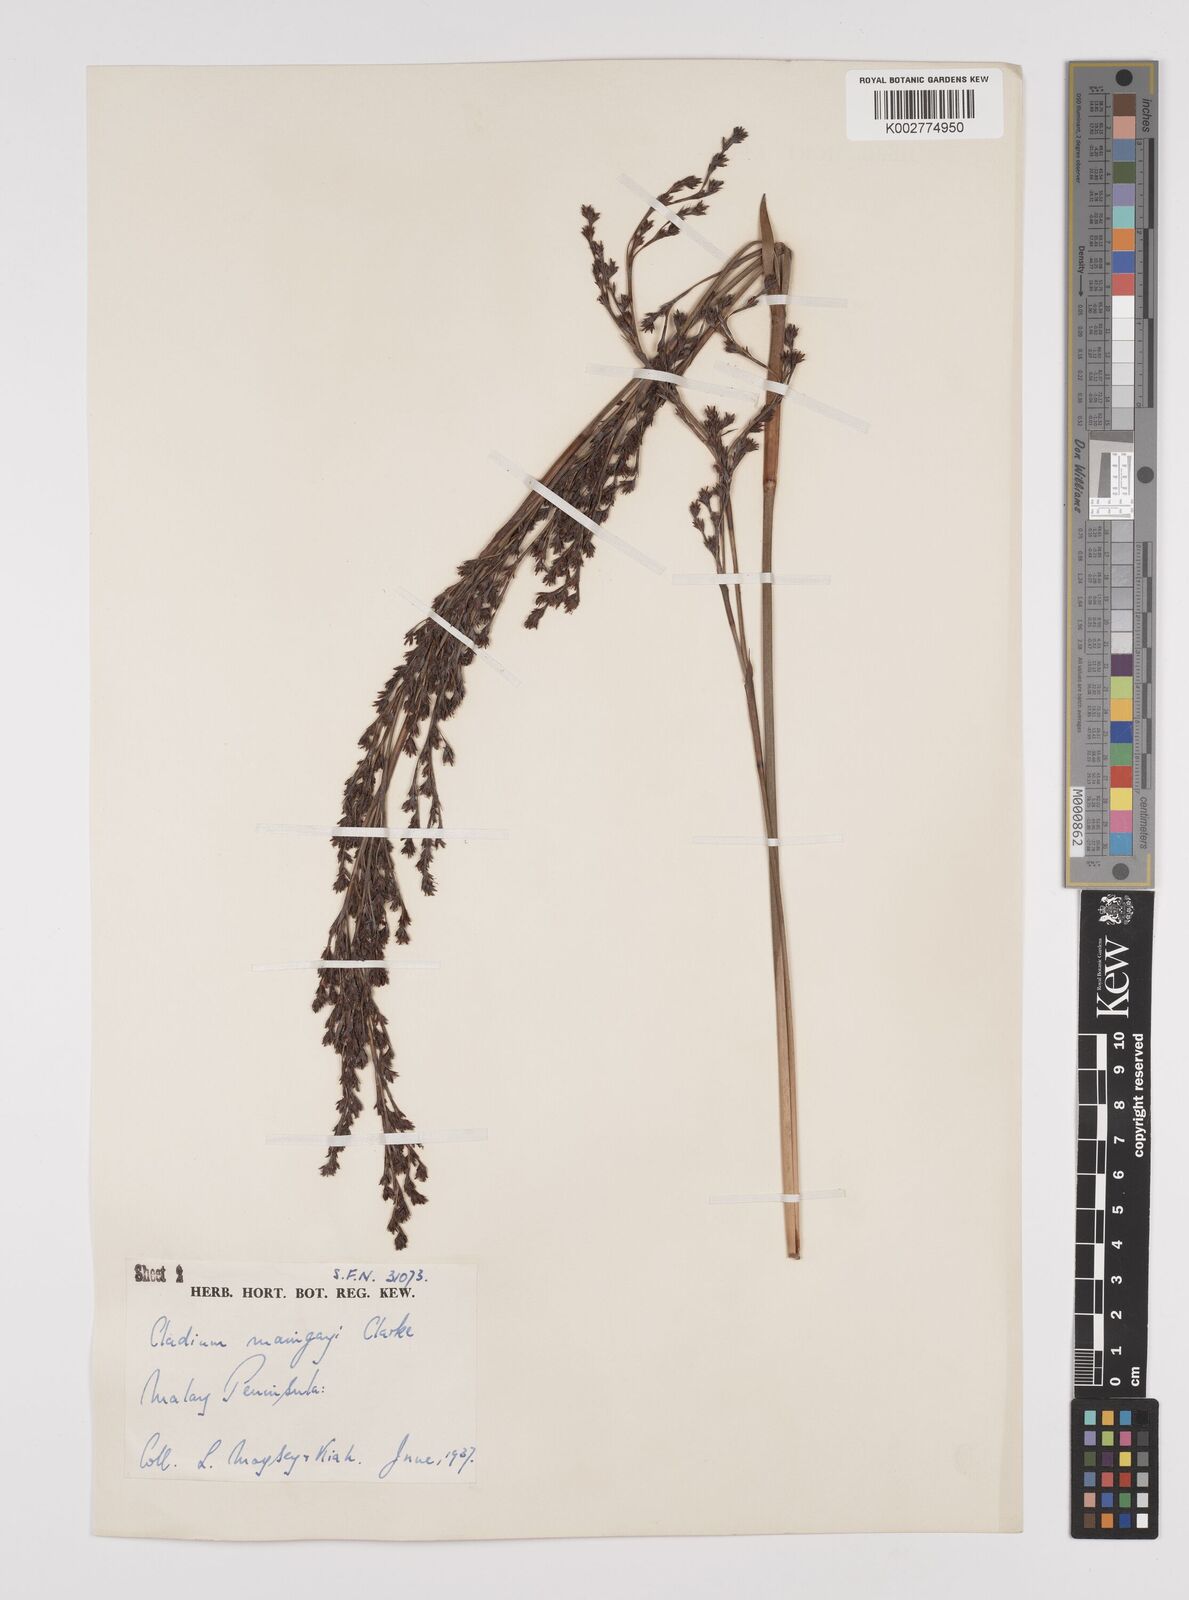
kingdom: Plantae
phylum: Tracheophyta
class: Liliopsida
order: Poales
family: Cyperaceae
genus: Machaerina
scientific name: Machaerina maingayi
